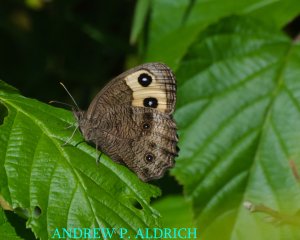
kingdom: Animalia
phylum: Arthropoda
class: Insecta
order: Lepidoptera
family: Nymphalidae
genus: Cercyonis
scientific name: Cercyonis pegala
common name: Common Wood-Nymph
